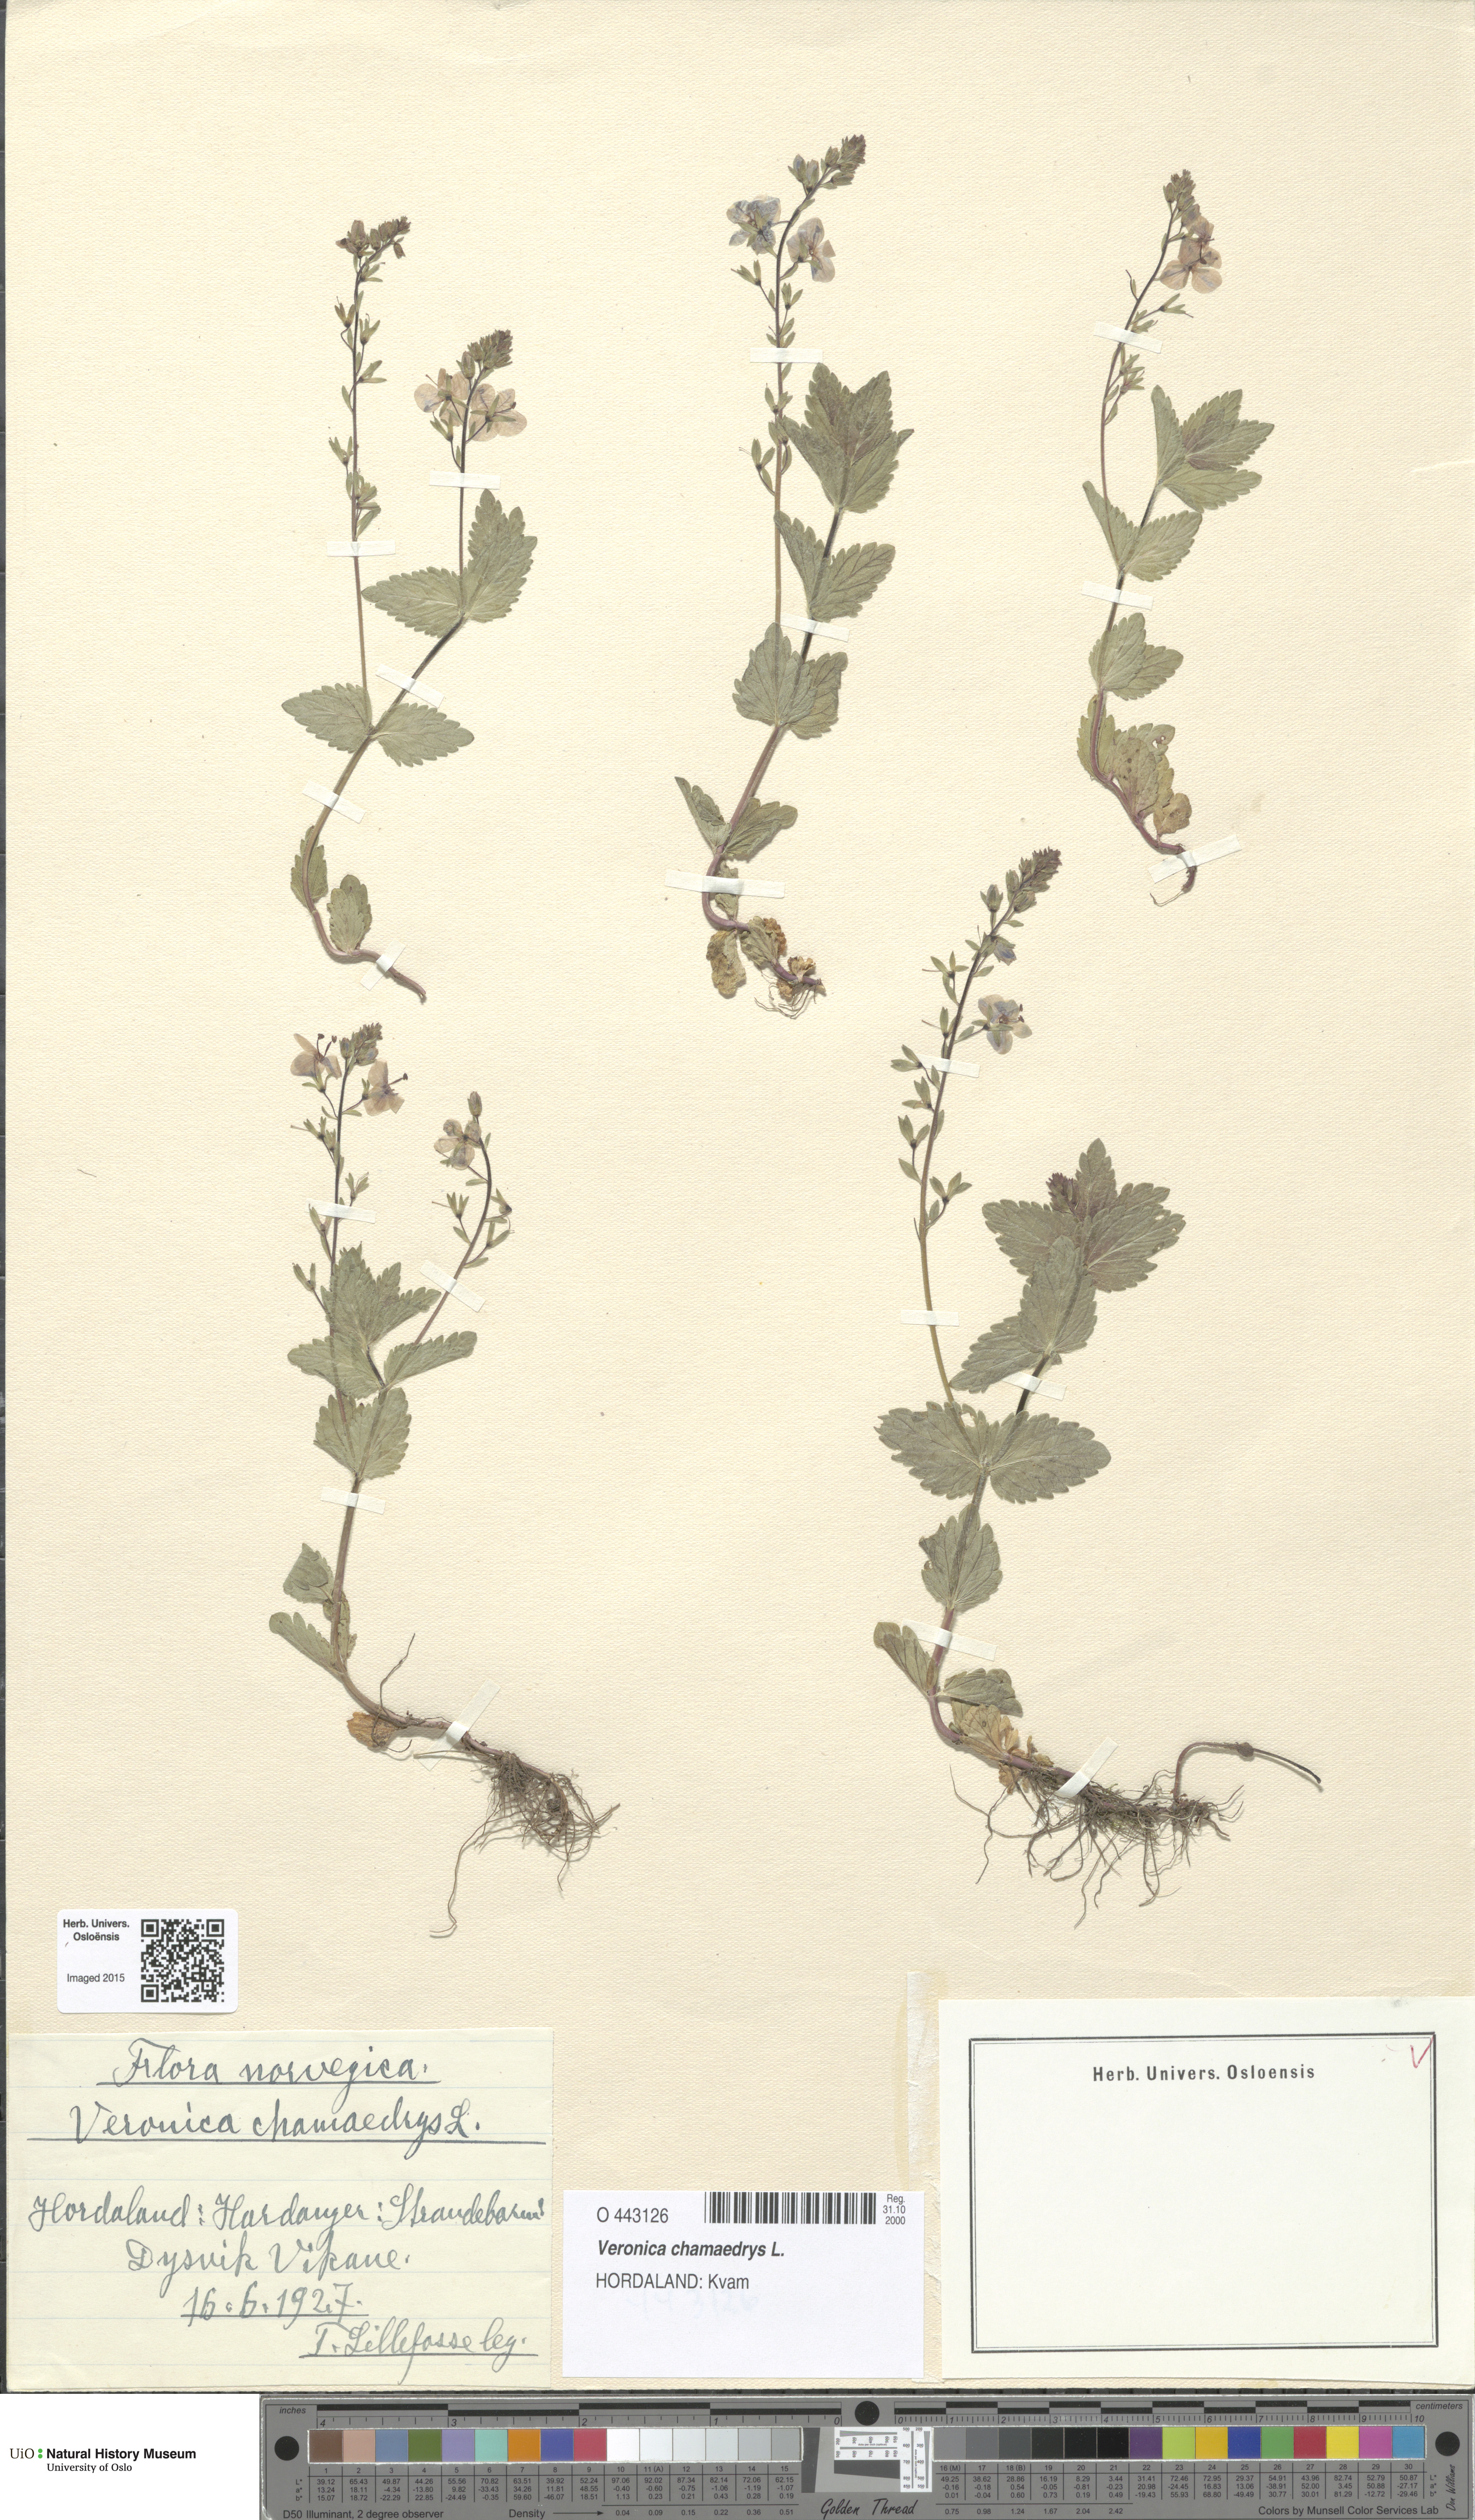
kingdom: Plantae
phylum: Tracheophyta
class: Magnoliopsida
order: Lamiales
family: Plantaginaceae
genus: Veronica
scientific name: Veronica chamaedrys
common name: Germander speedwell
